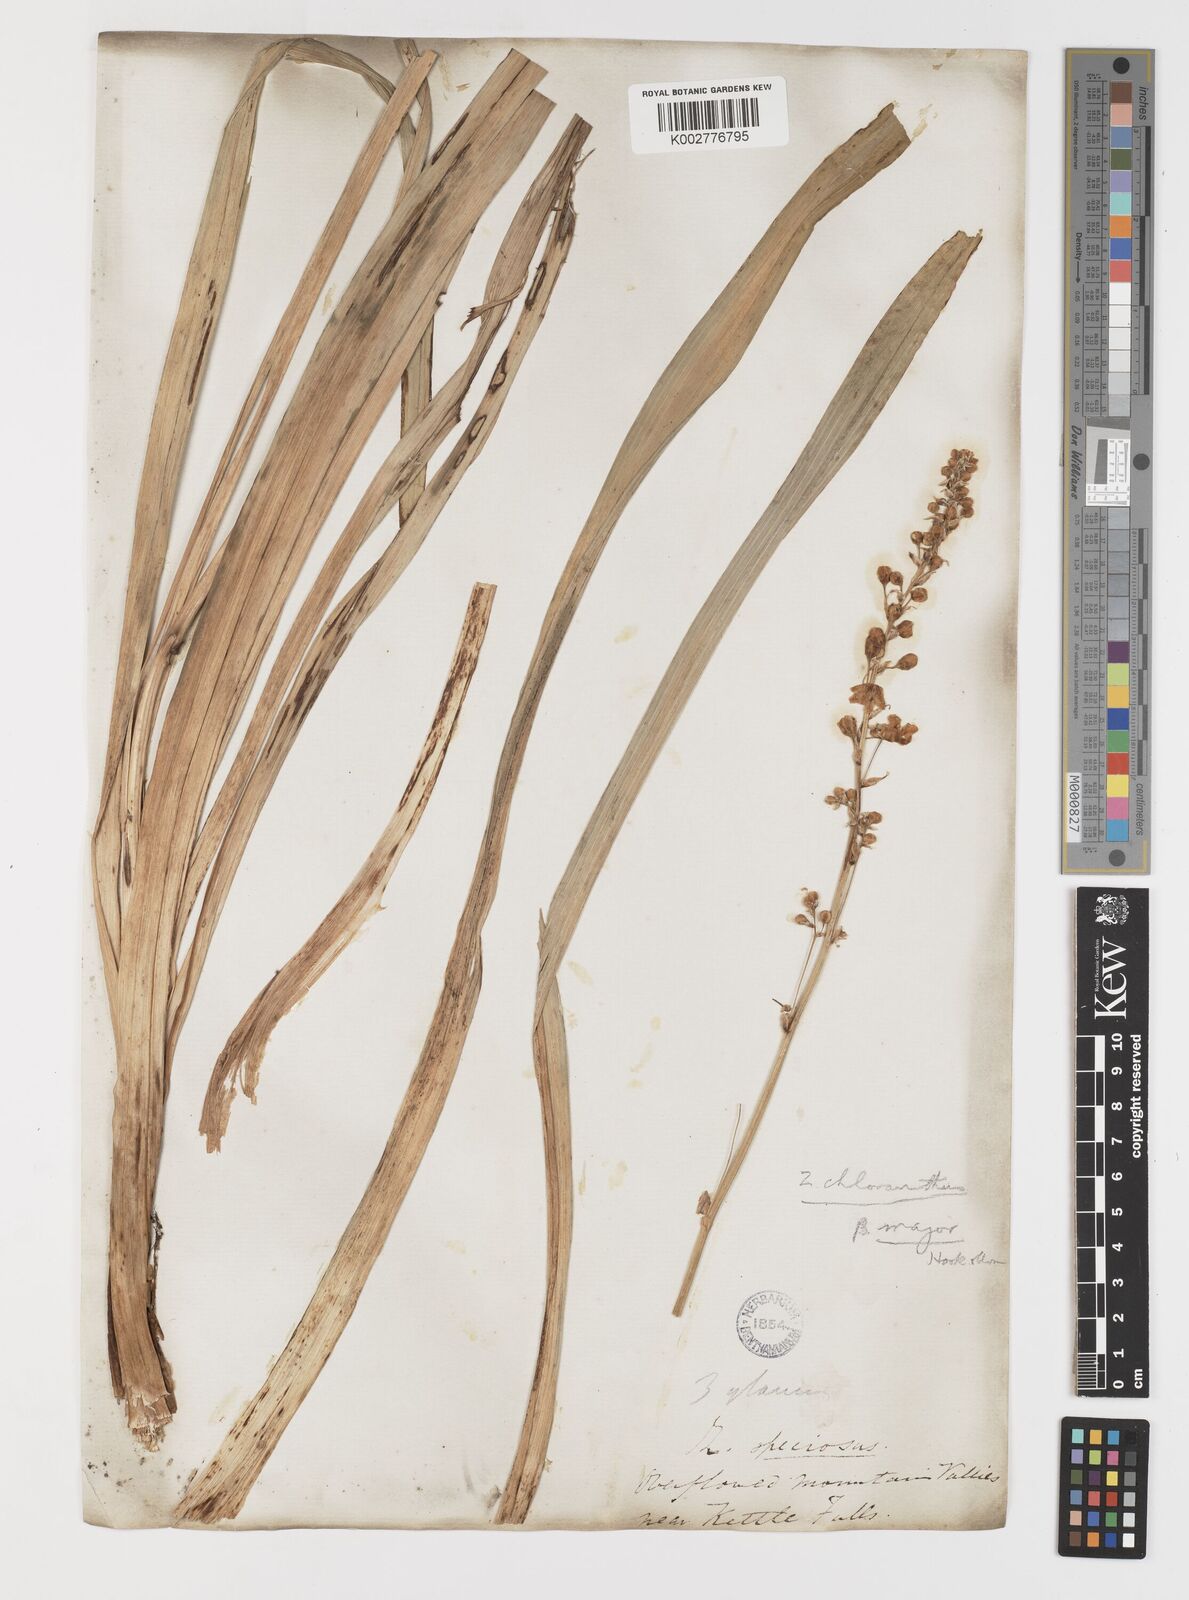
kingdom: Plantae
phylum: Tracheophyta
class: Liliopsida
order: Liliales
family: Melanthiaceae
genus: Anticlea
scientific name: Anticlea elegans
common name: Mountain death camas
